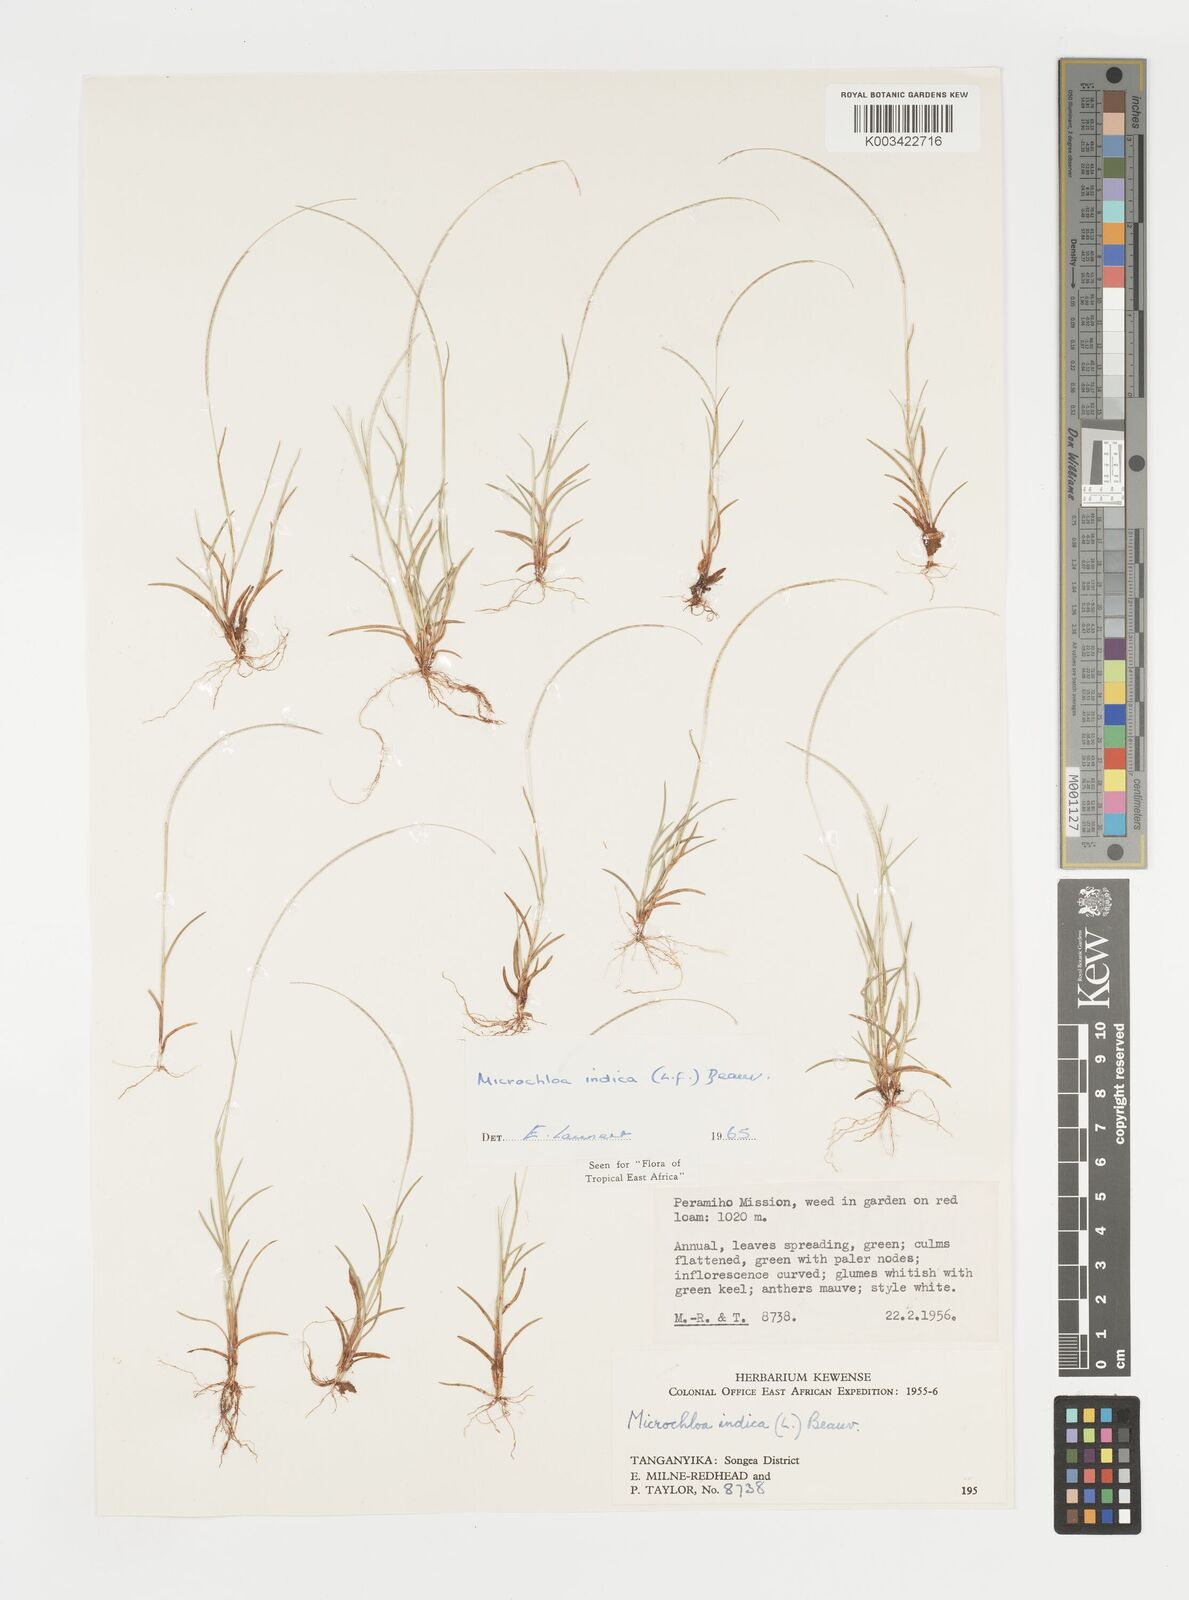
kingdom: Plantae
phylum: Tracheophyta
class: Liliopsida
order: Poales
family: Poaceae
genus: Microchloa
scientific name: Microchloa indica
